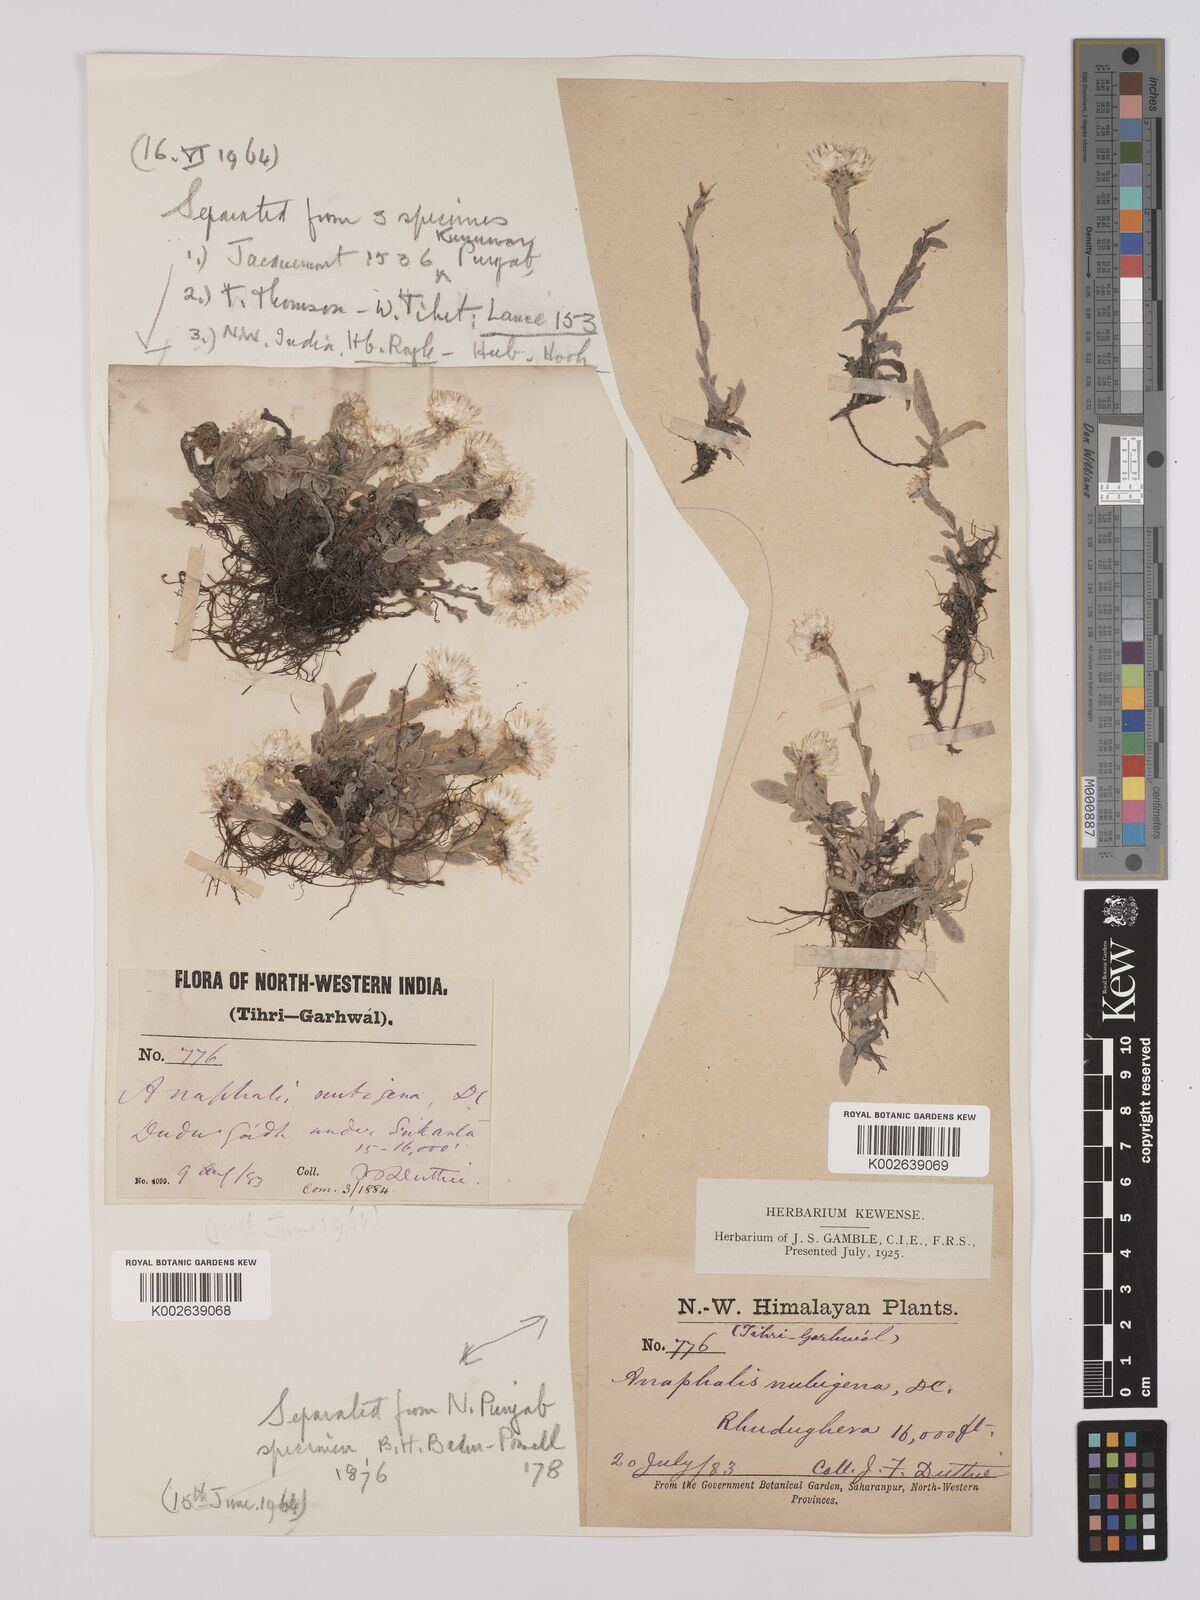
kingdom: Plantae
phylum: Tracheophyta
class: Magnoliopsida
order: Asterales
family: Asteraceae
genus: Anaphalis
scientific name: Anaphalis nepalensis
